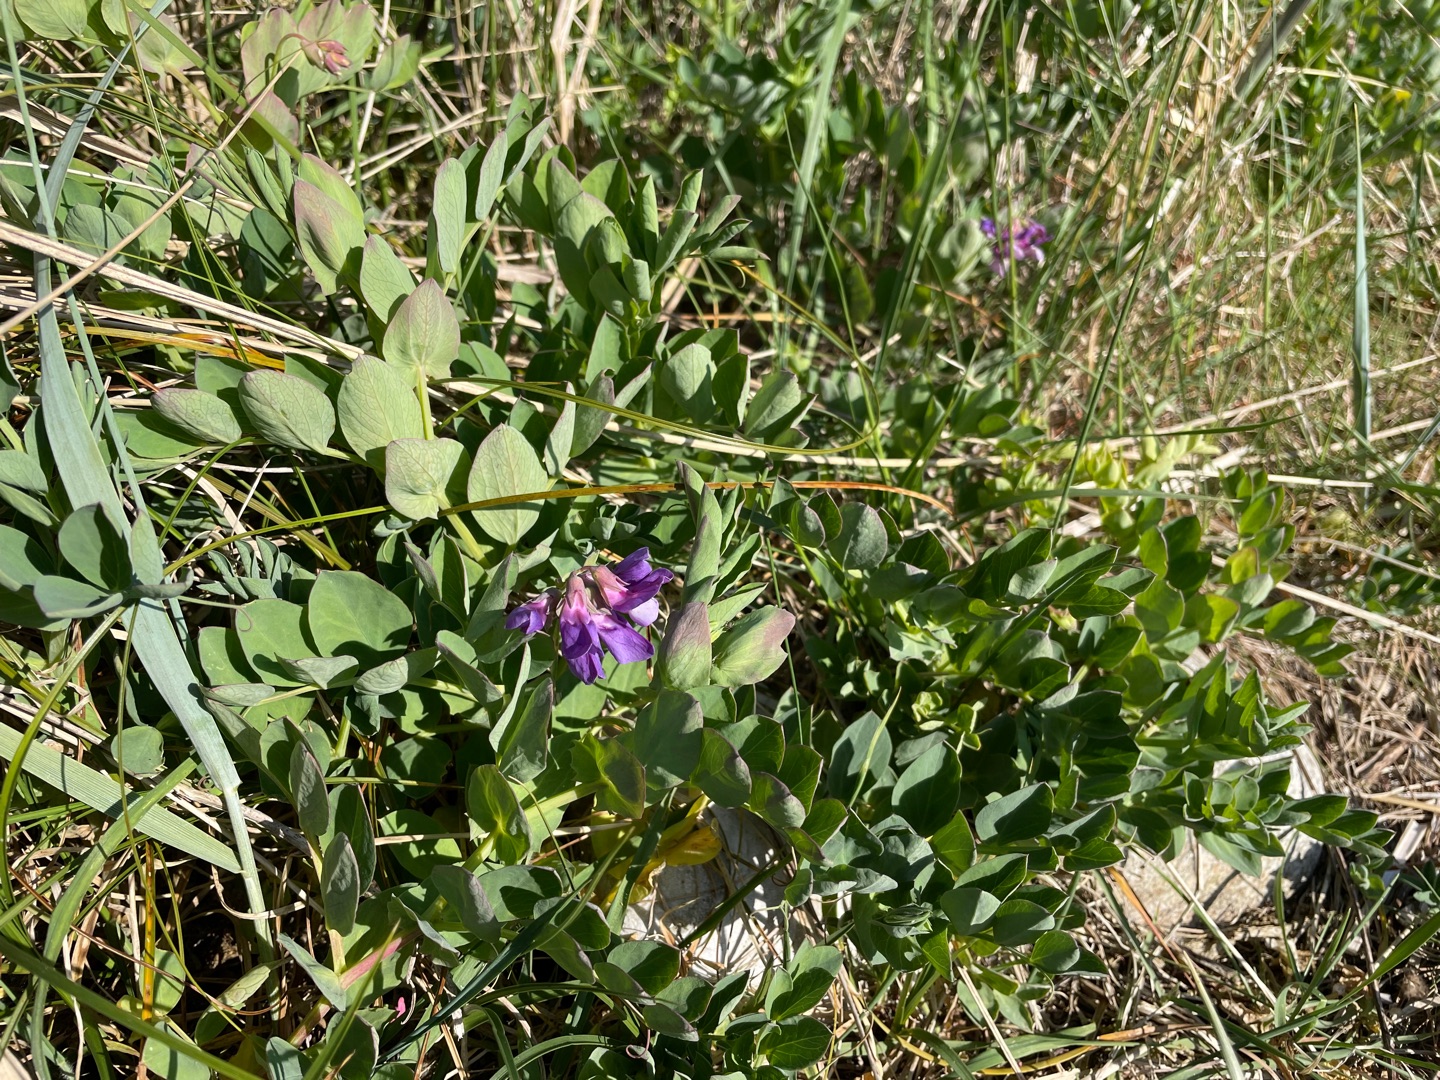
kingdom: Plantae
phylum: Tracheophyta
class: Magnoliopsida
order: Fabales
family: Fabaceae
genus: Lathyrus
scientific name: Lathyrus japonicus
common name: Strand-fladbælg
